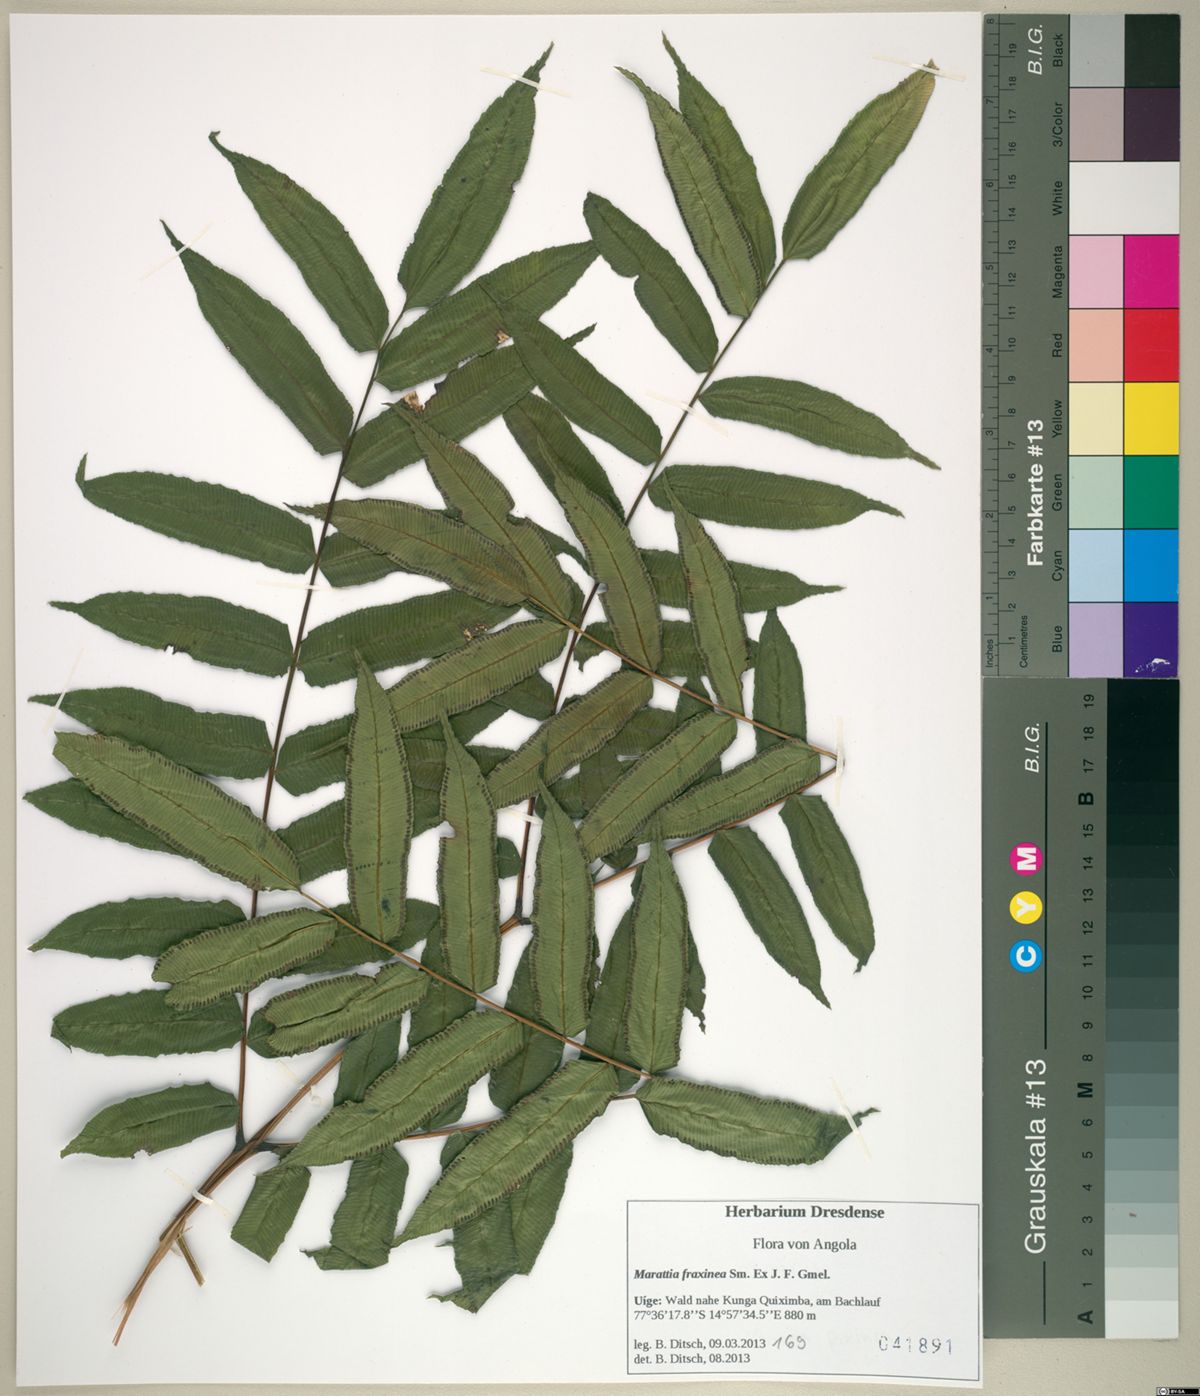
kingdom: Plantae
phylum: Tracheophyta
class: Polypodiopsida
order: Marattiales
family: Marattiaceae
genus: Ptisana
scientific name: Ptisana fraxinea
